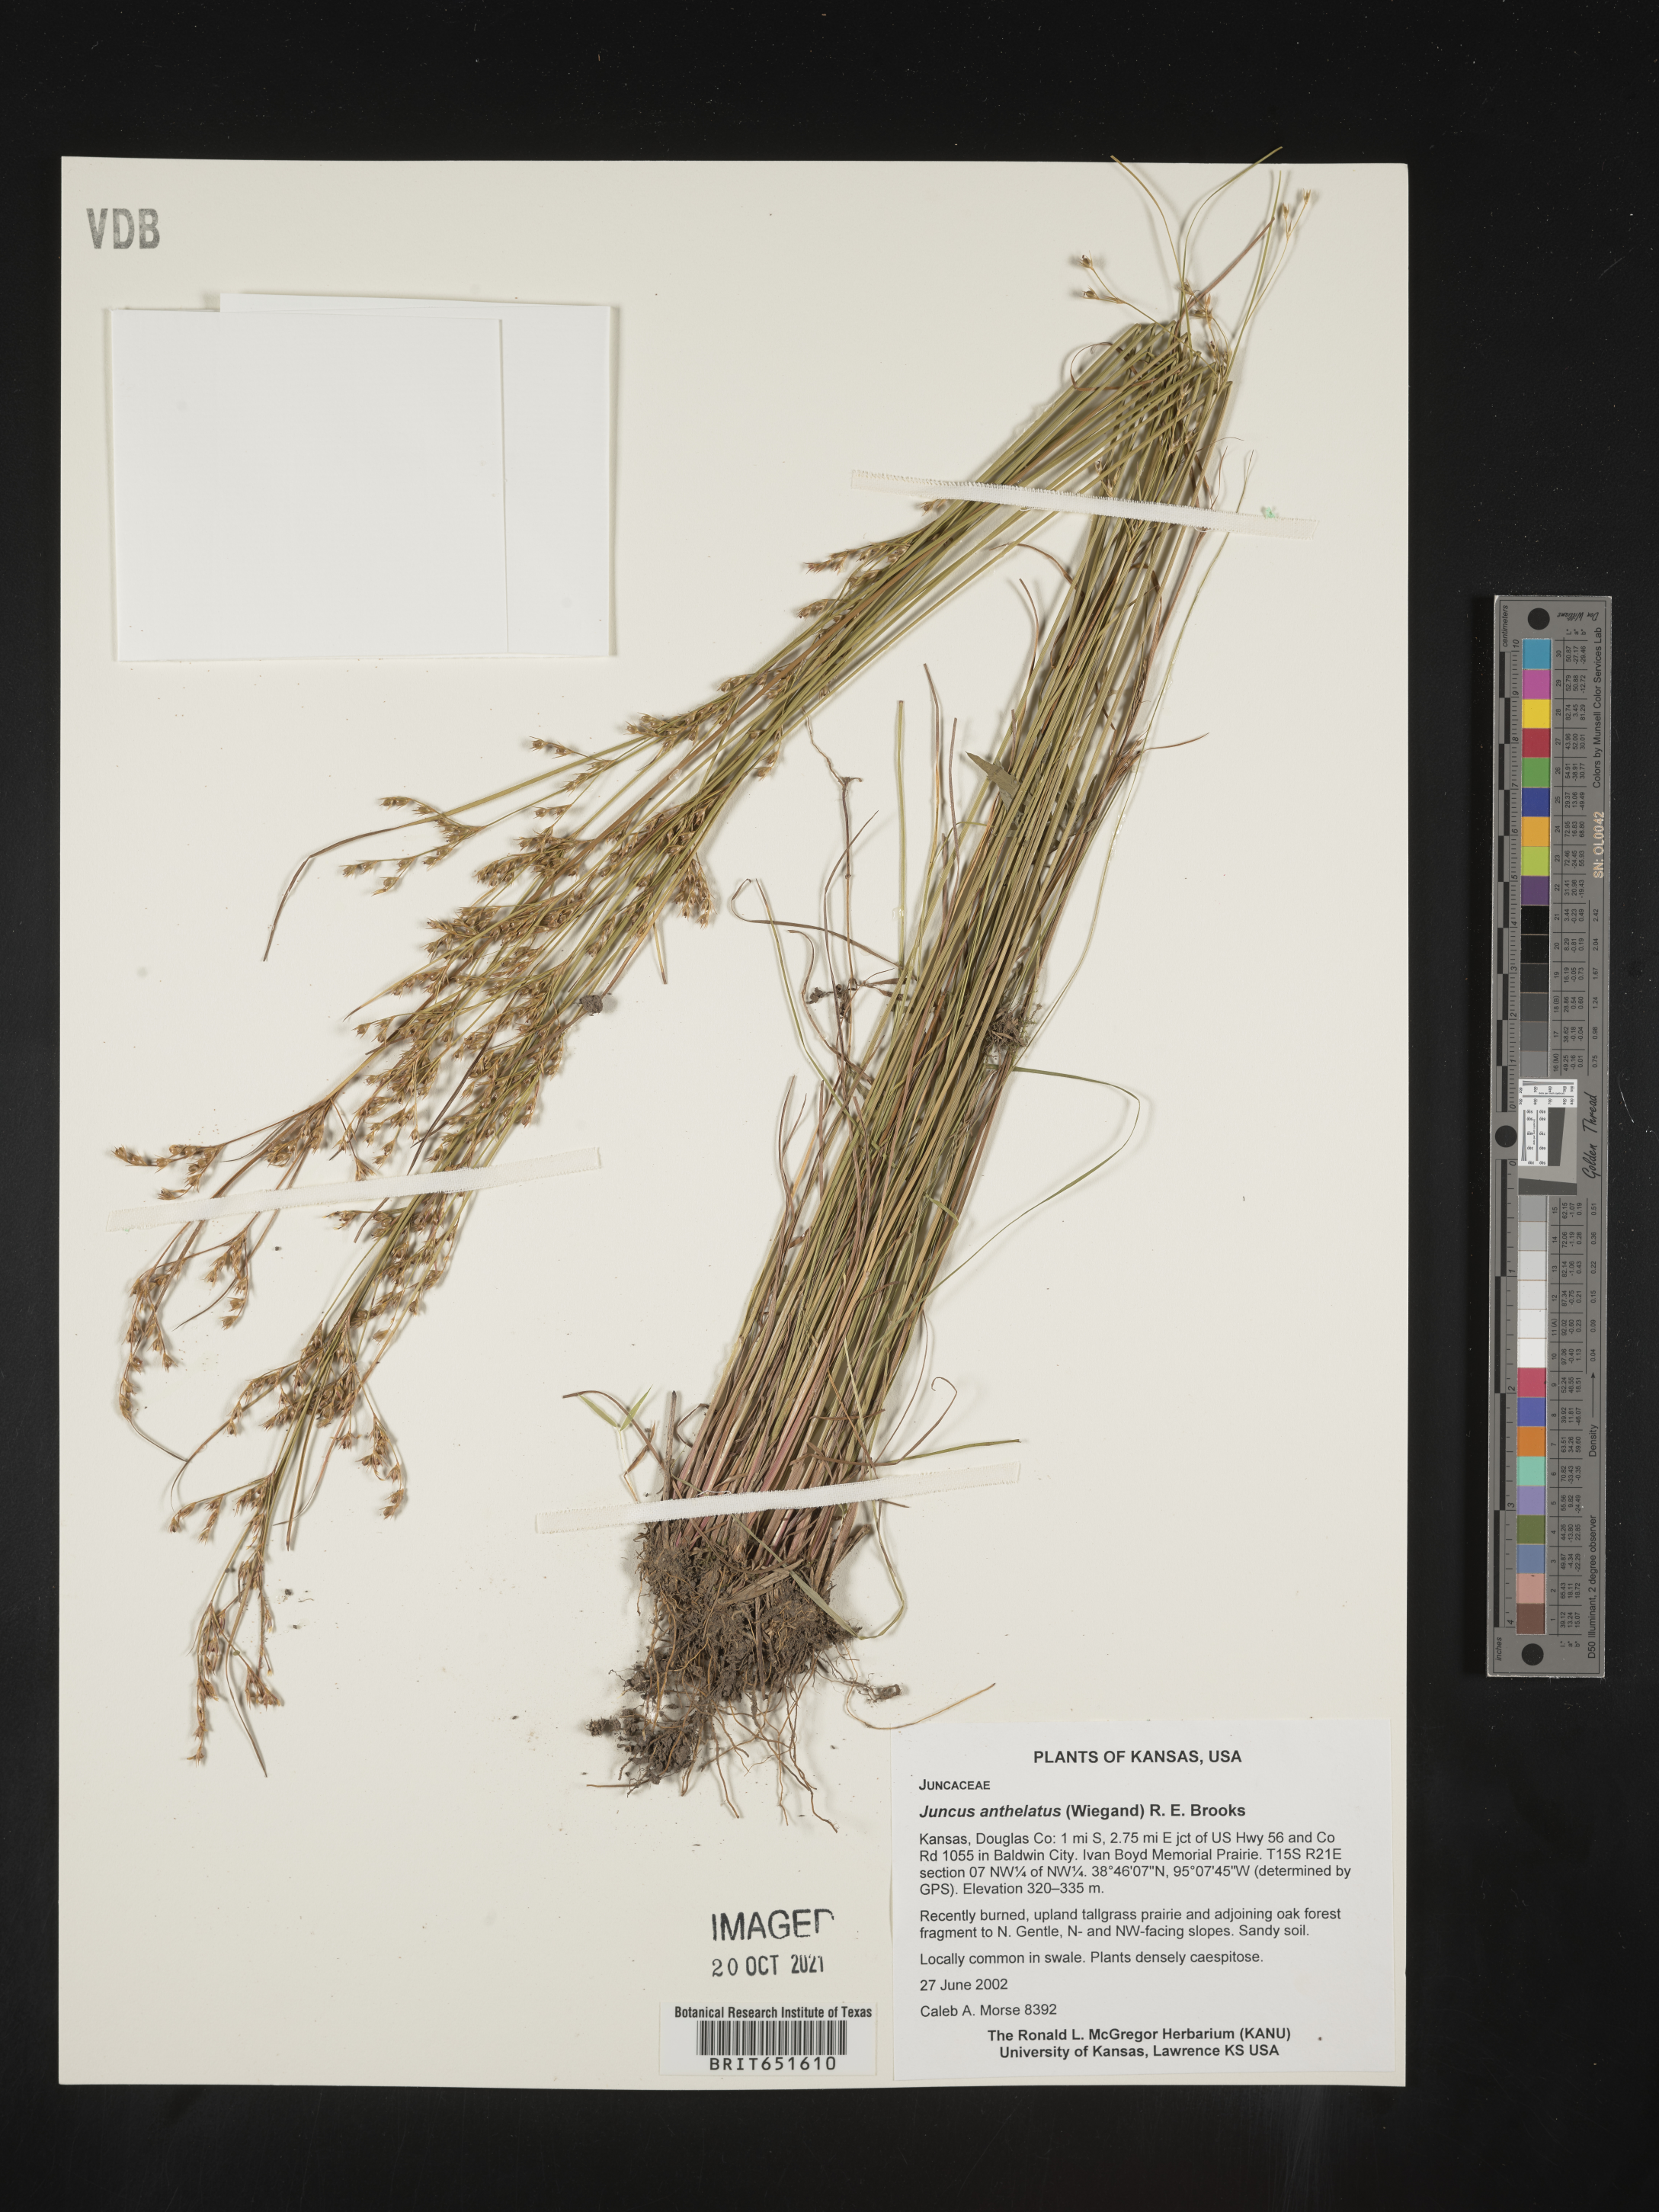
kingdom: Plantae
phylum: Tracheophyta
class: Liliopsida
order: Poales
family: Juncaceae
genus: Juncus
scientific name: Juncus anthelatus
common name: Giant path rush
